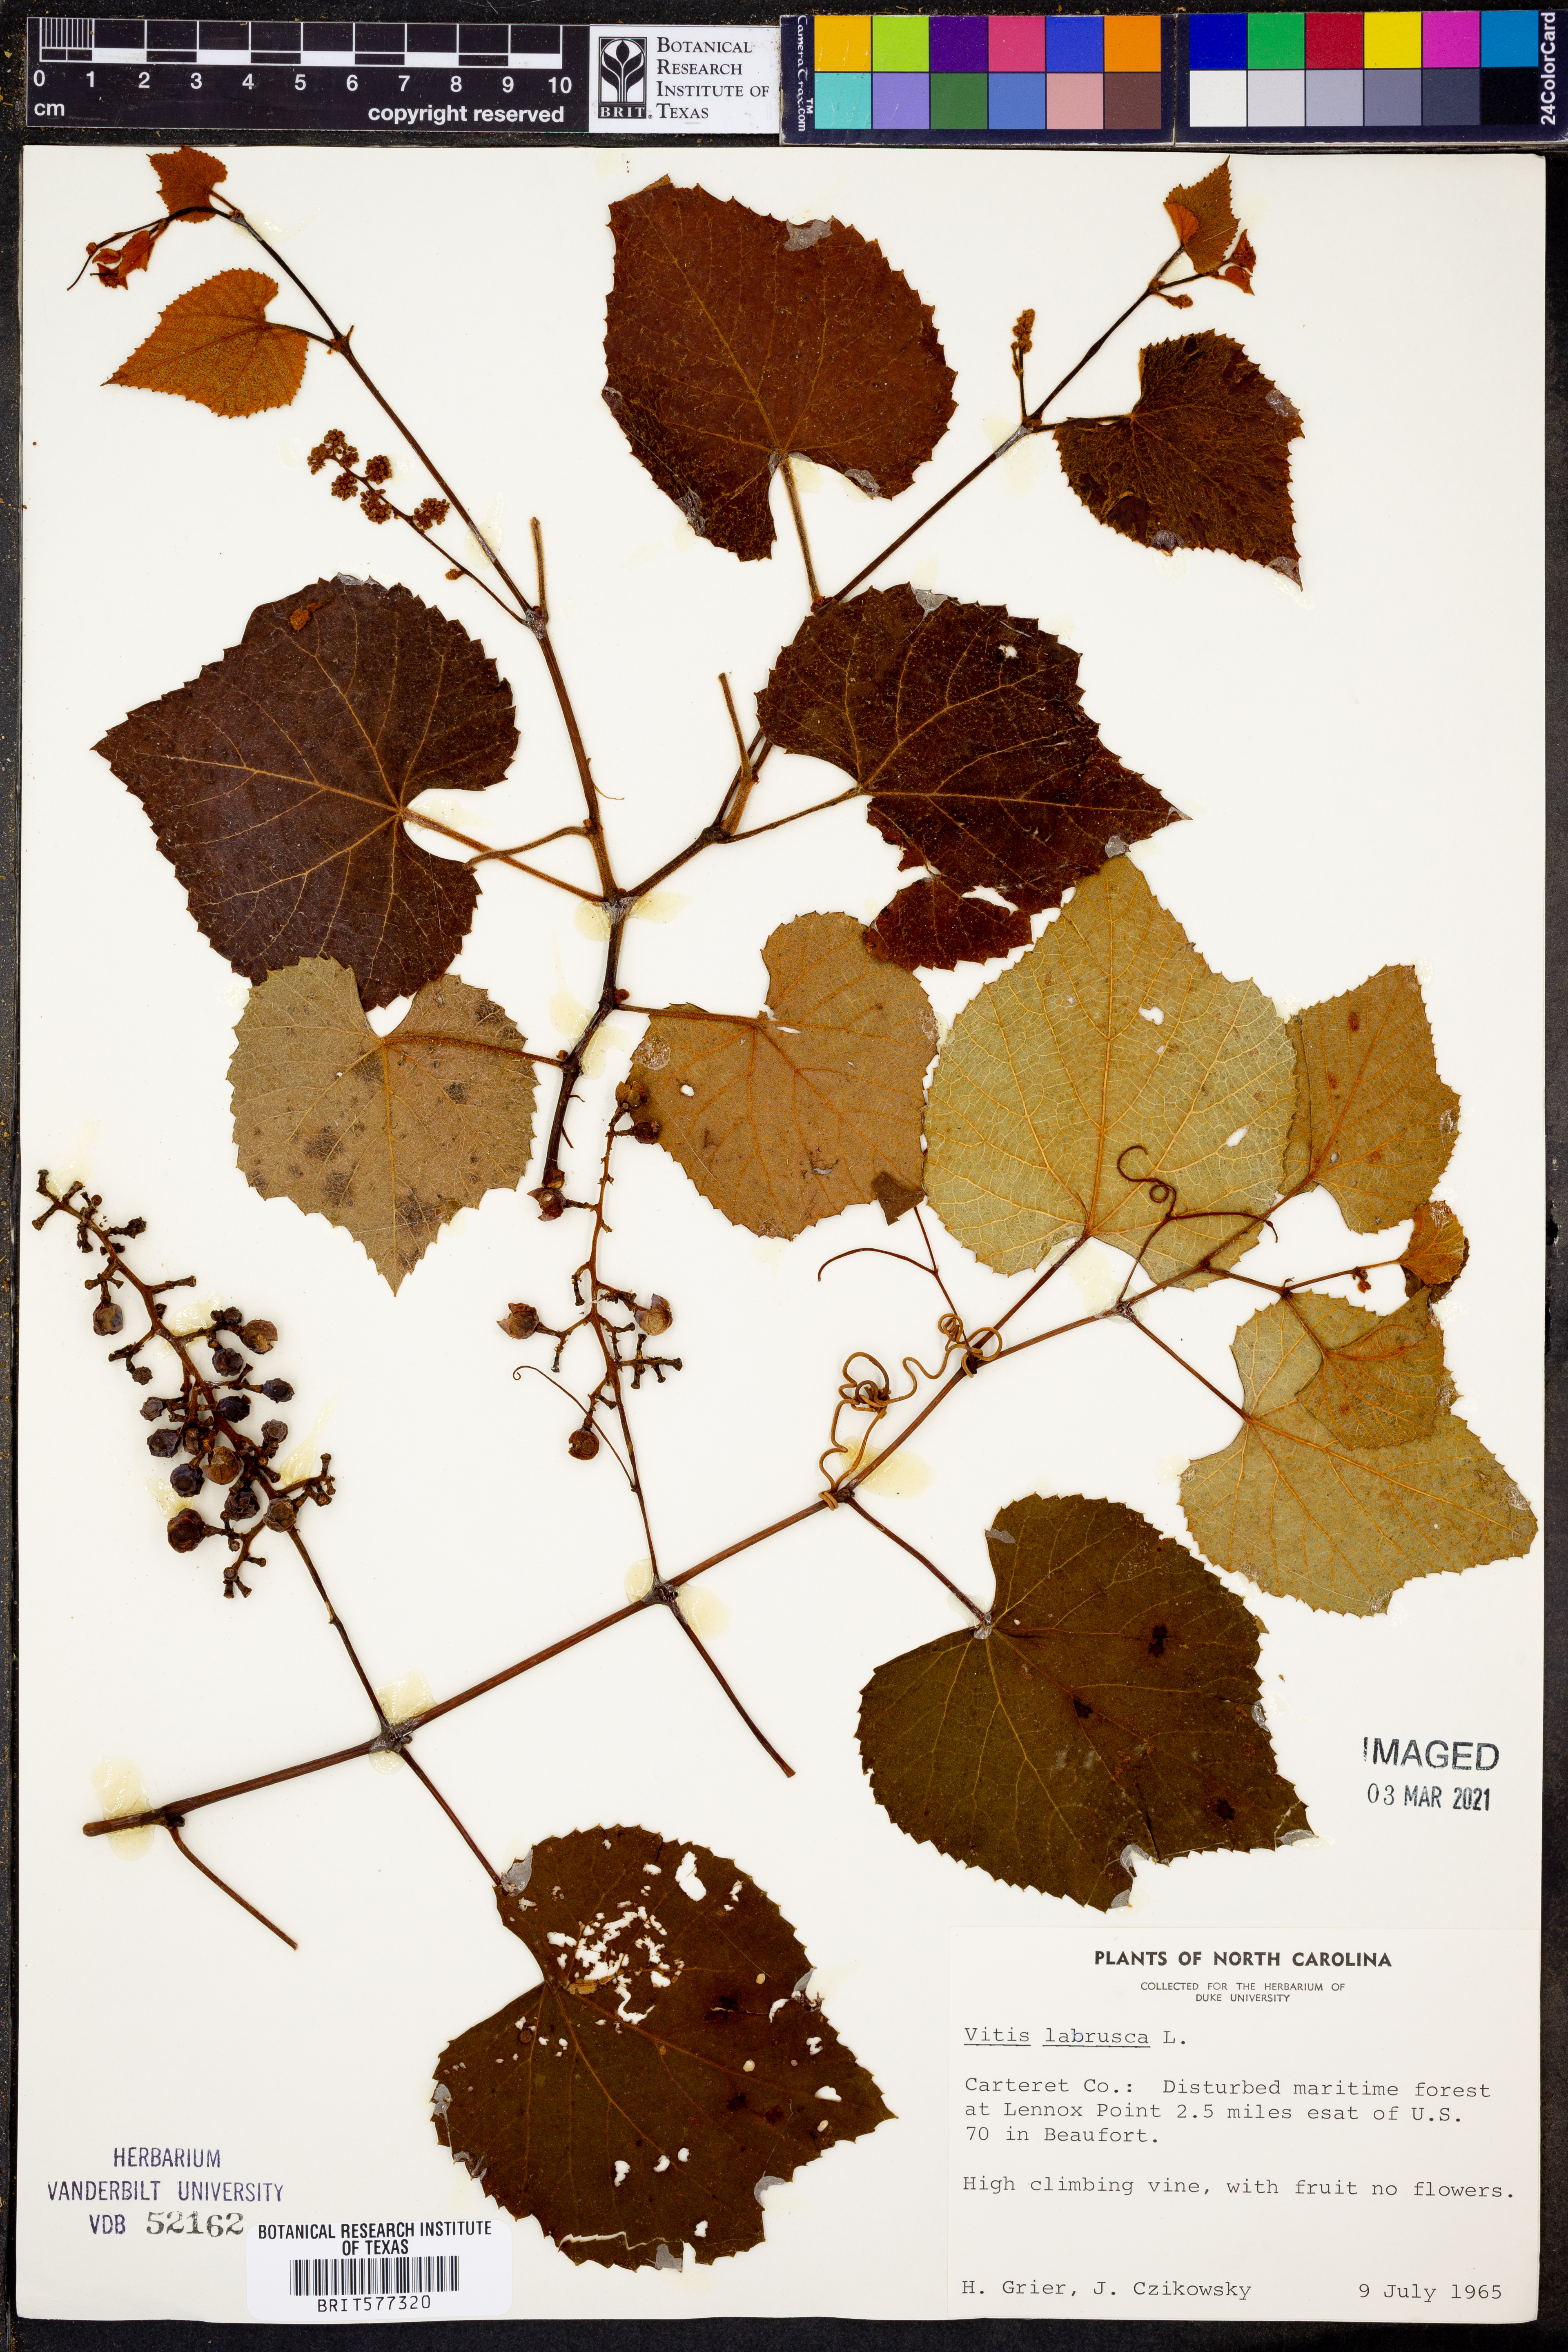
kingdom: Plantae
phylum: Tracheophyta
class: Magnoliopsida
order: Vitales
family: Vitaceae
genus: Vitis
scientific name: Vitis labrusca
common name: Concord grape
